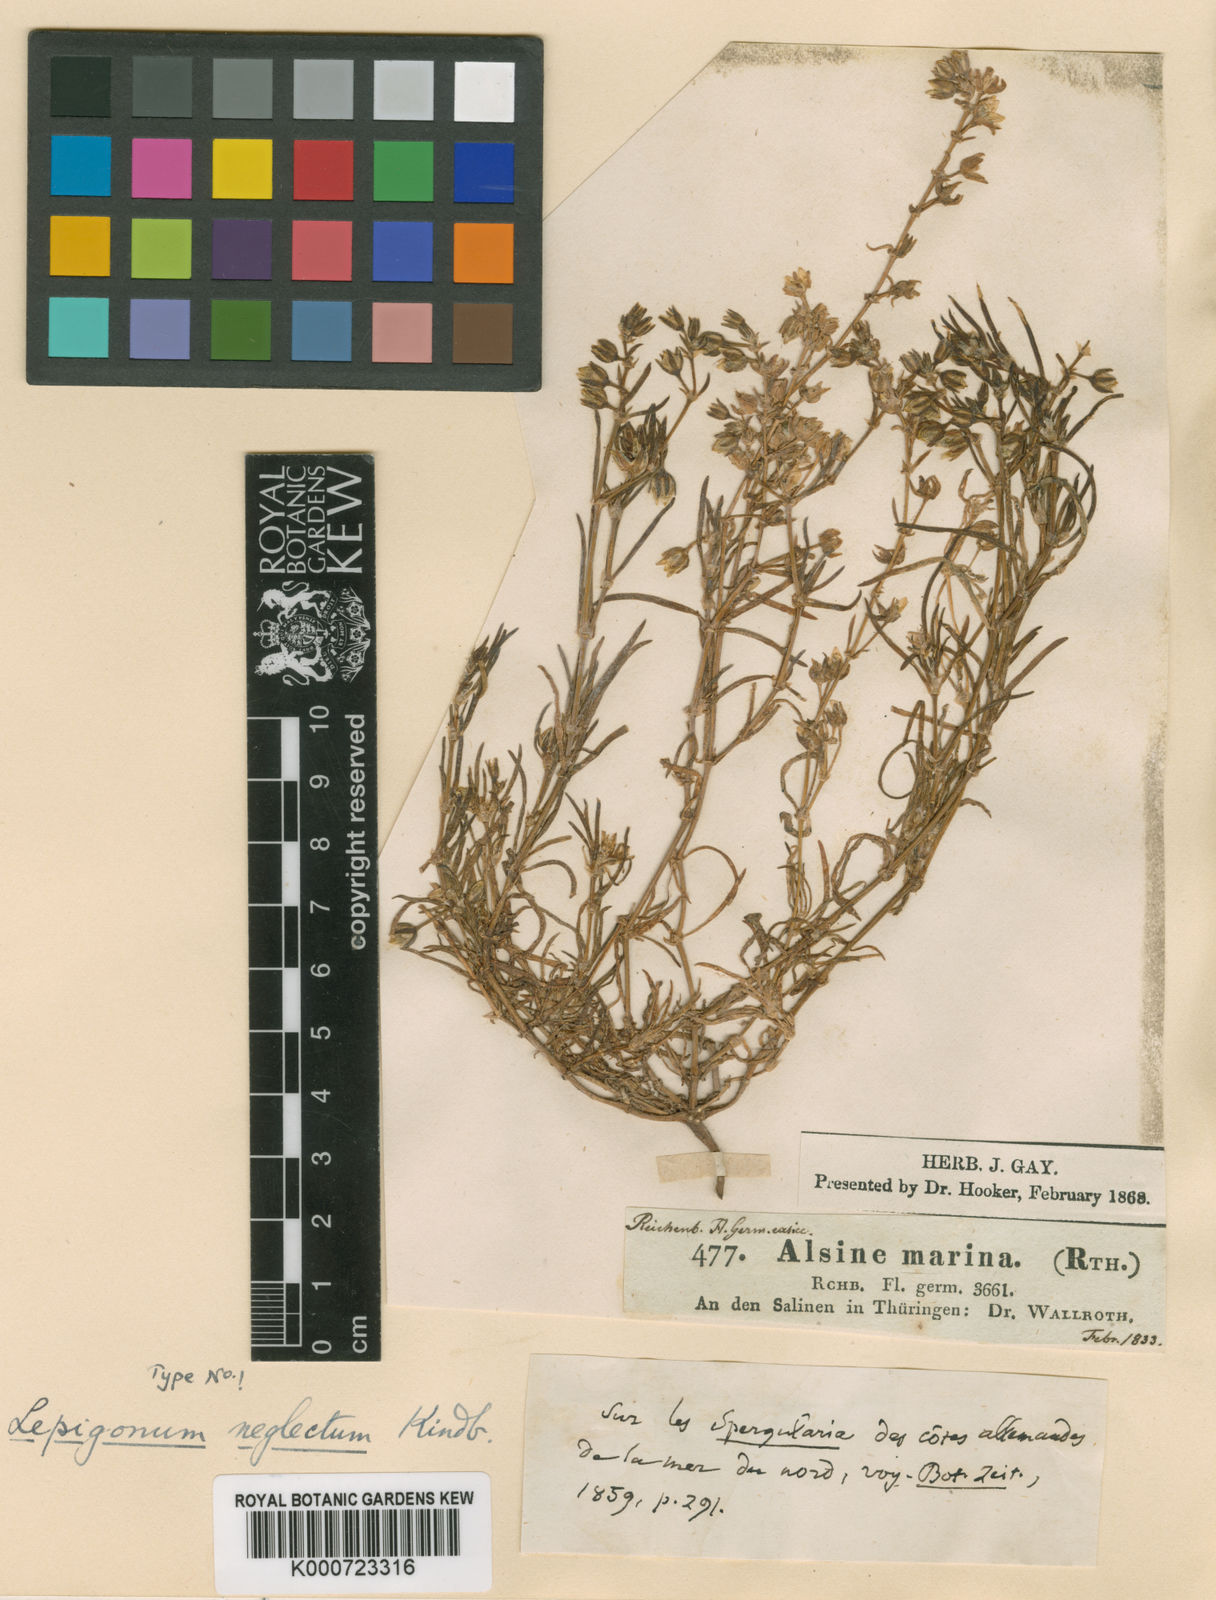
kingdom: Plantae
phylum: Tracheophyta
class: Magnoliopsida
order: Caryophyllales
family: Caryophyllaceae
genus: Spergularia
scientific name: Spergularia
